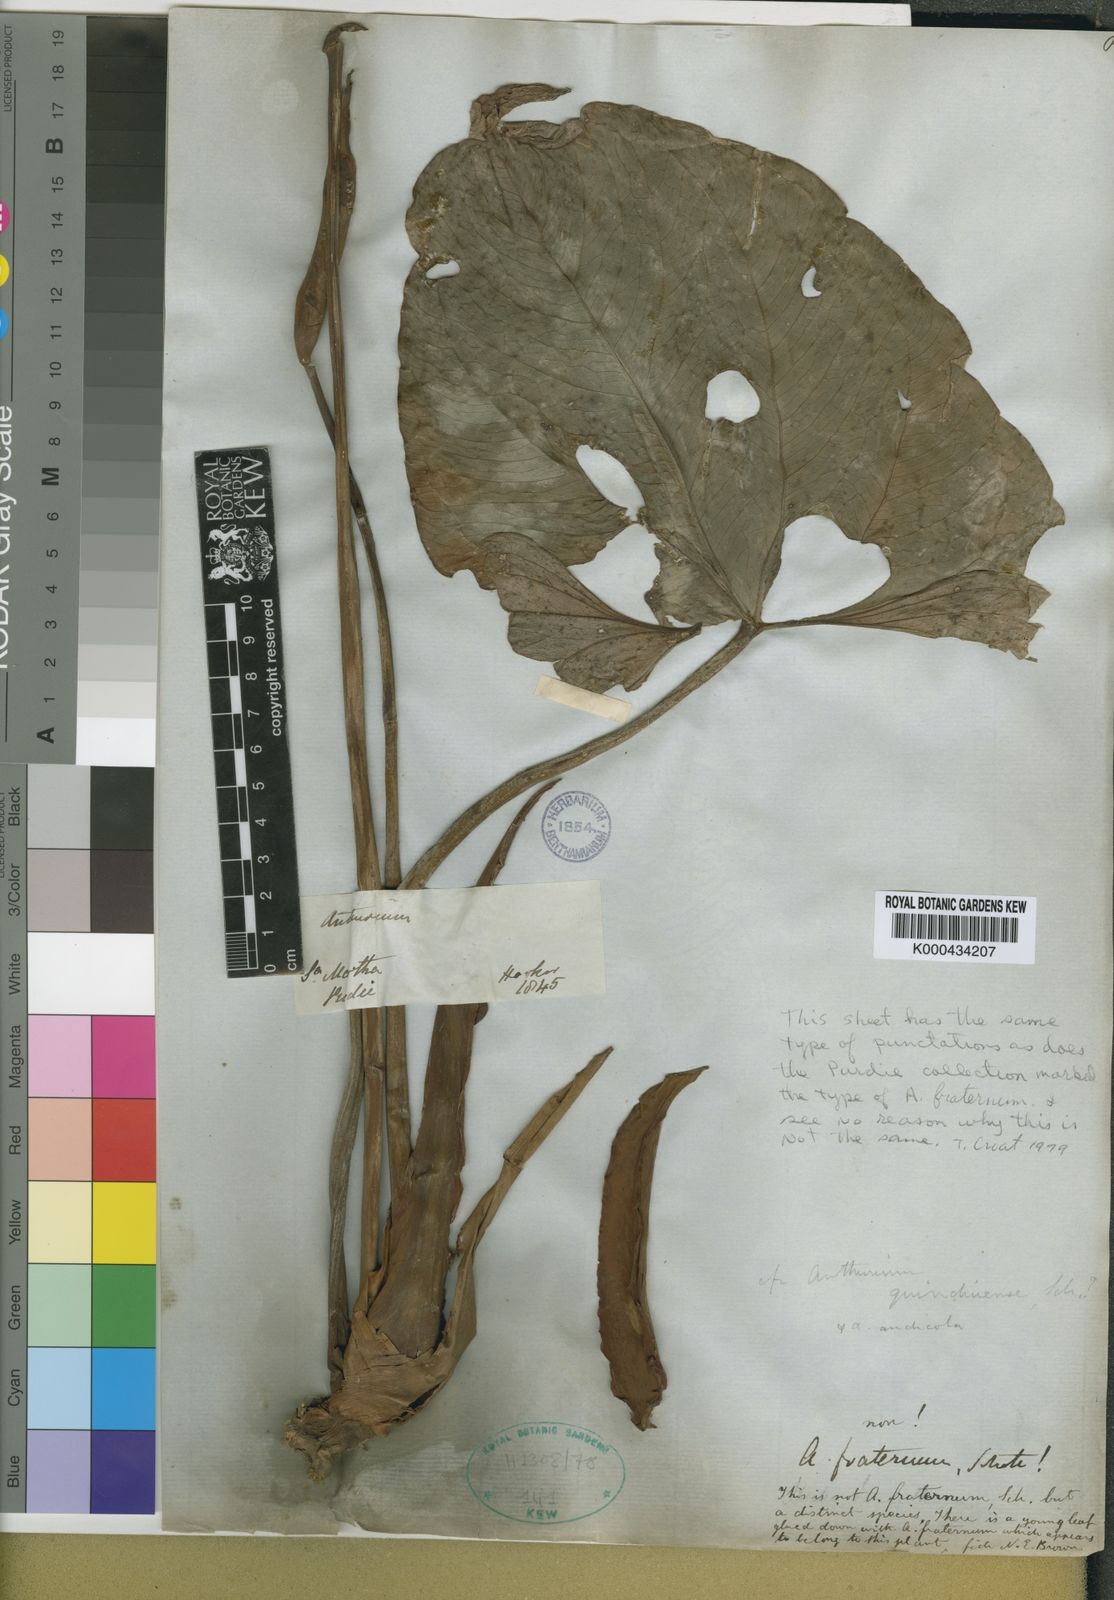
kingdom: Plantae
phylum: Tracheophyta
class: Liliopsida
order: Alismatales
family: Araceae
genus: Anthurium
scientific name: Anthurium nymphaeifolium
